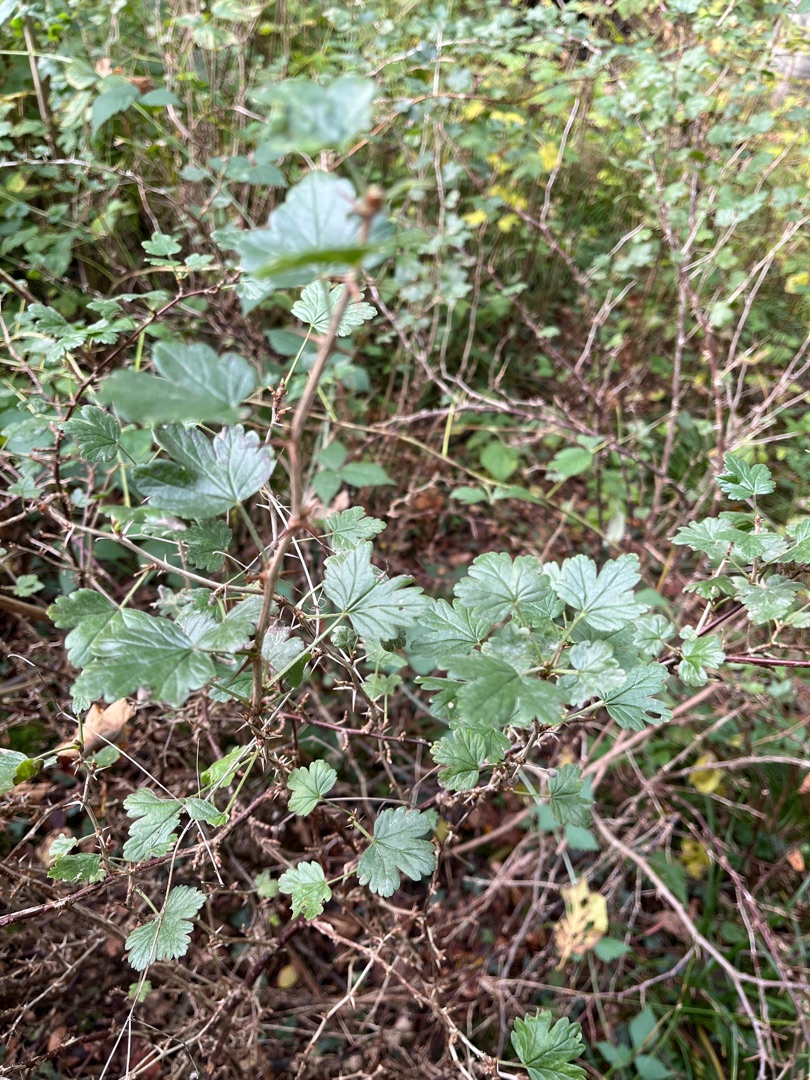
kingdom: Plantae
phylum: Tracheophyta
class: Magnoliopsida
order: Saxifragales
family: Grossulariaceae
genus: Ribes
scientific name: Ribes uva-crispa
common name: Stikkelsbær
